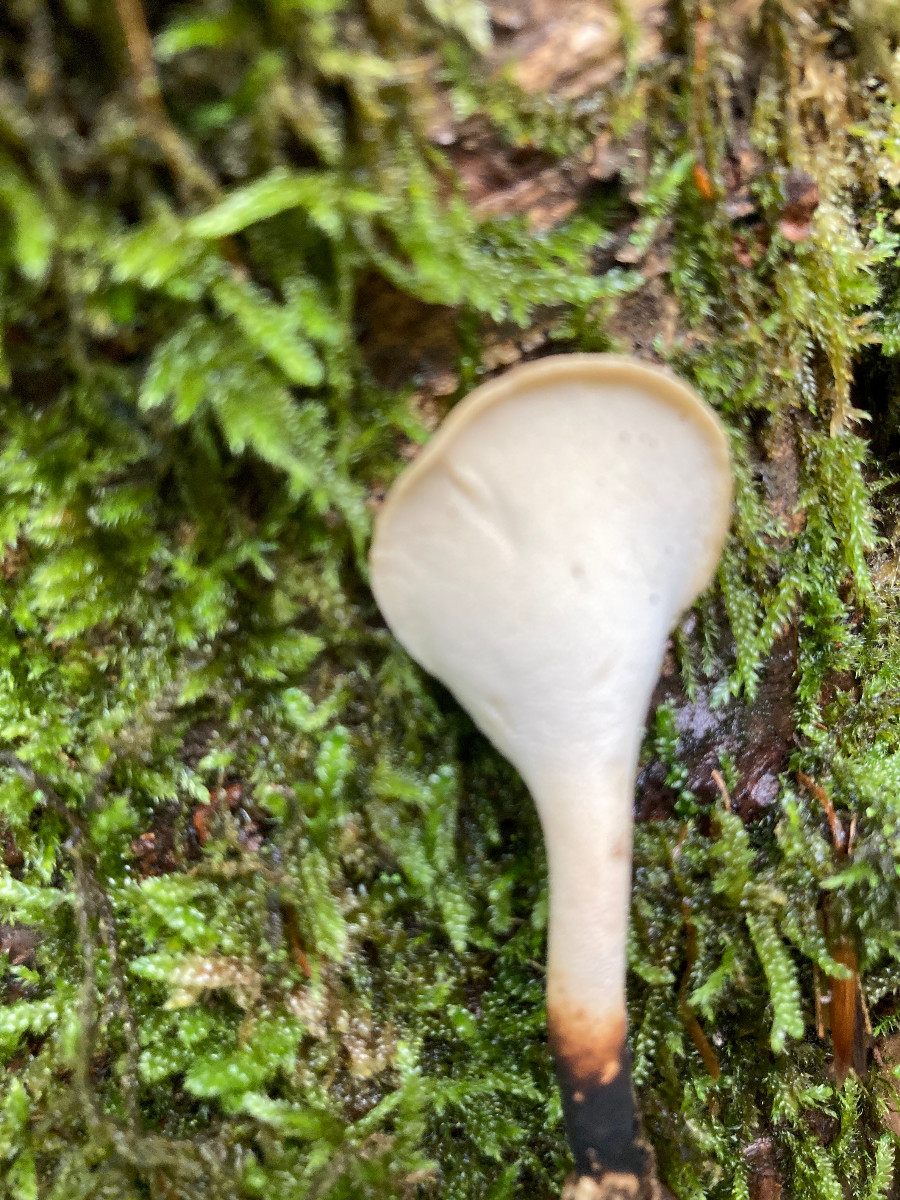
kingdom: Fungi
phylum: Basidiomycota
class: Agaricomycetes
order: Polyporales
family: Polyporaceae
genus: Cerioporus
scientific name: Cerioporus varius
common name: foranderlig stilkporesvamp
